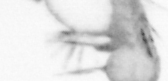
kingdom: Animalia
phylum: Arthropoda
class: Copepoda
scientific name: Copepoda
